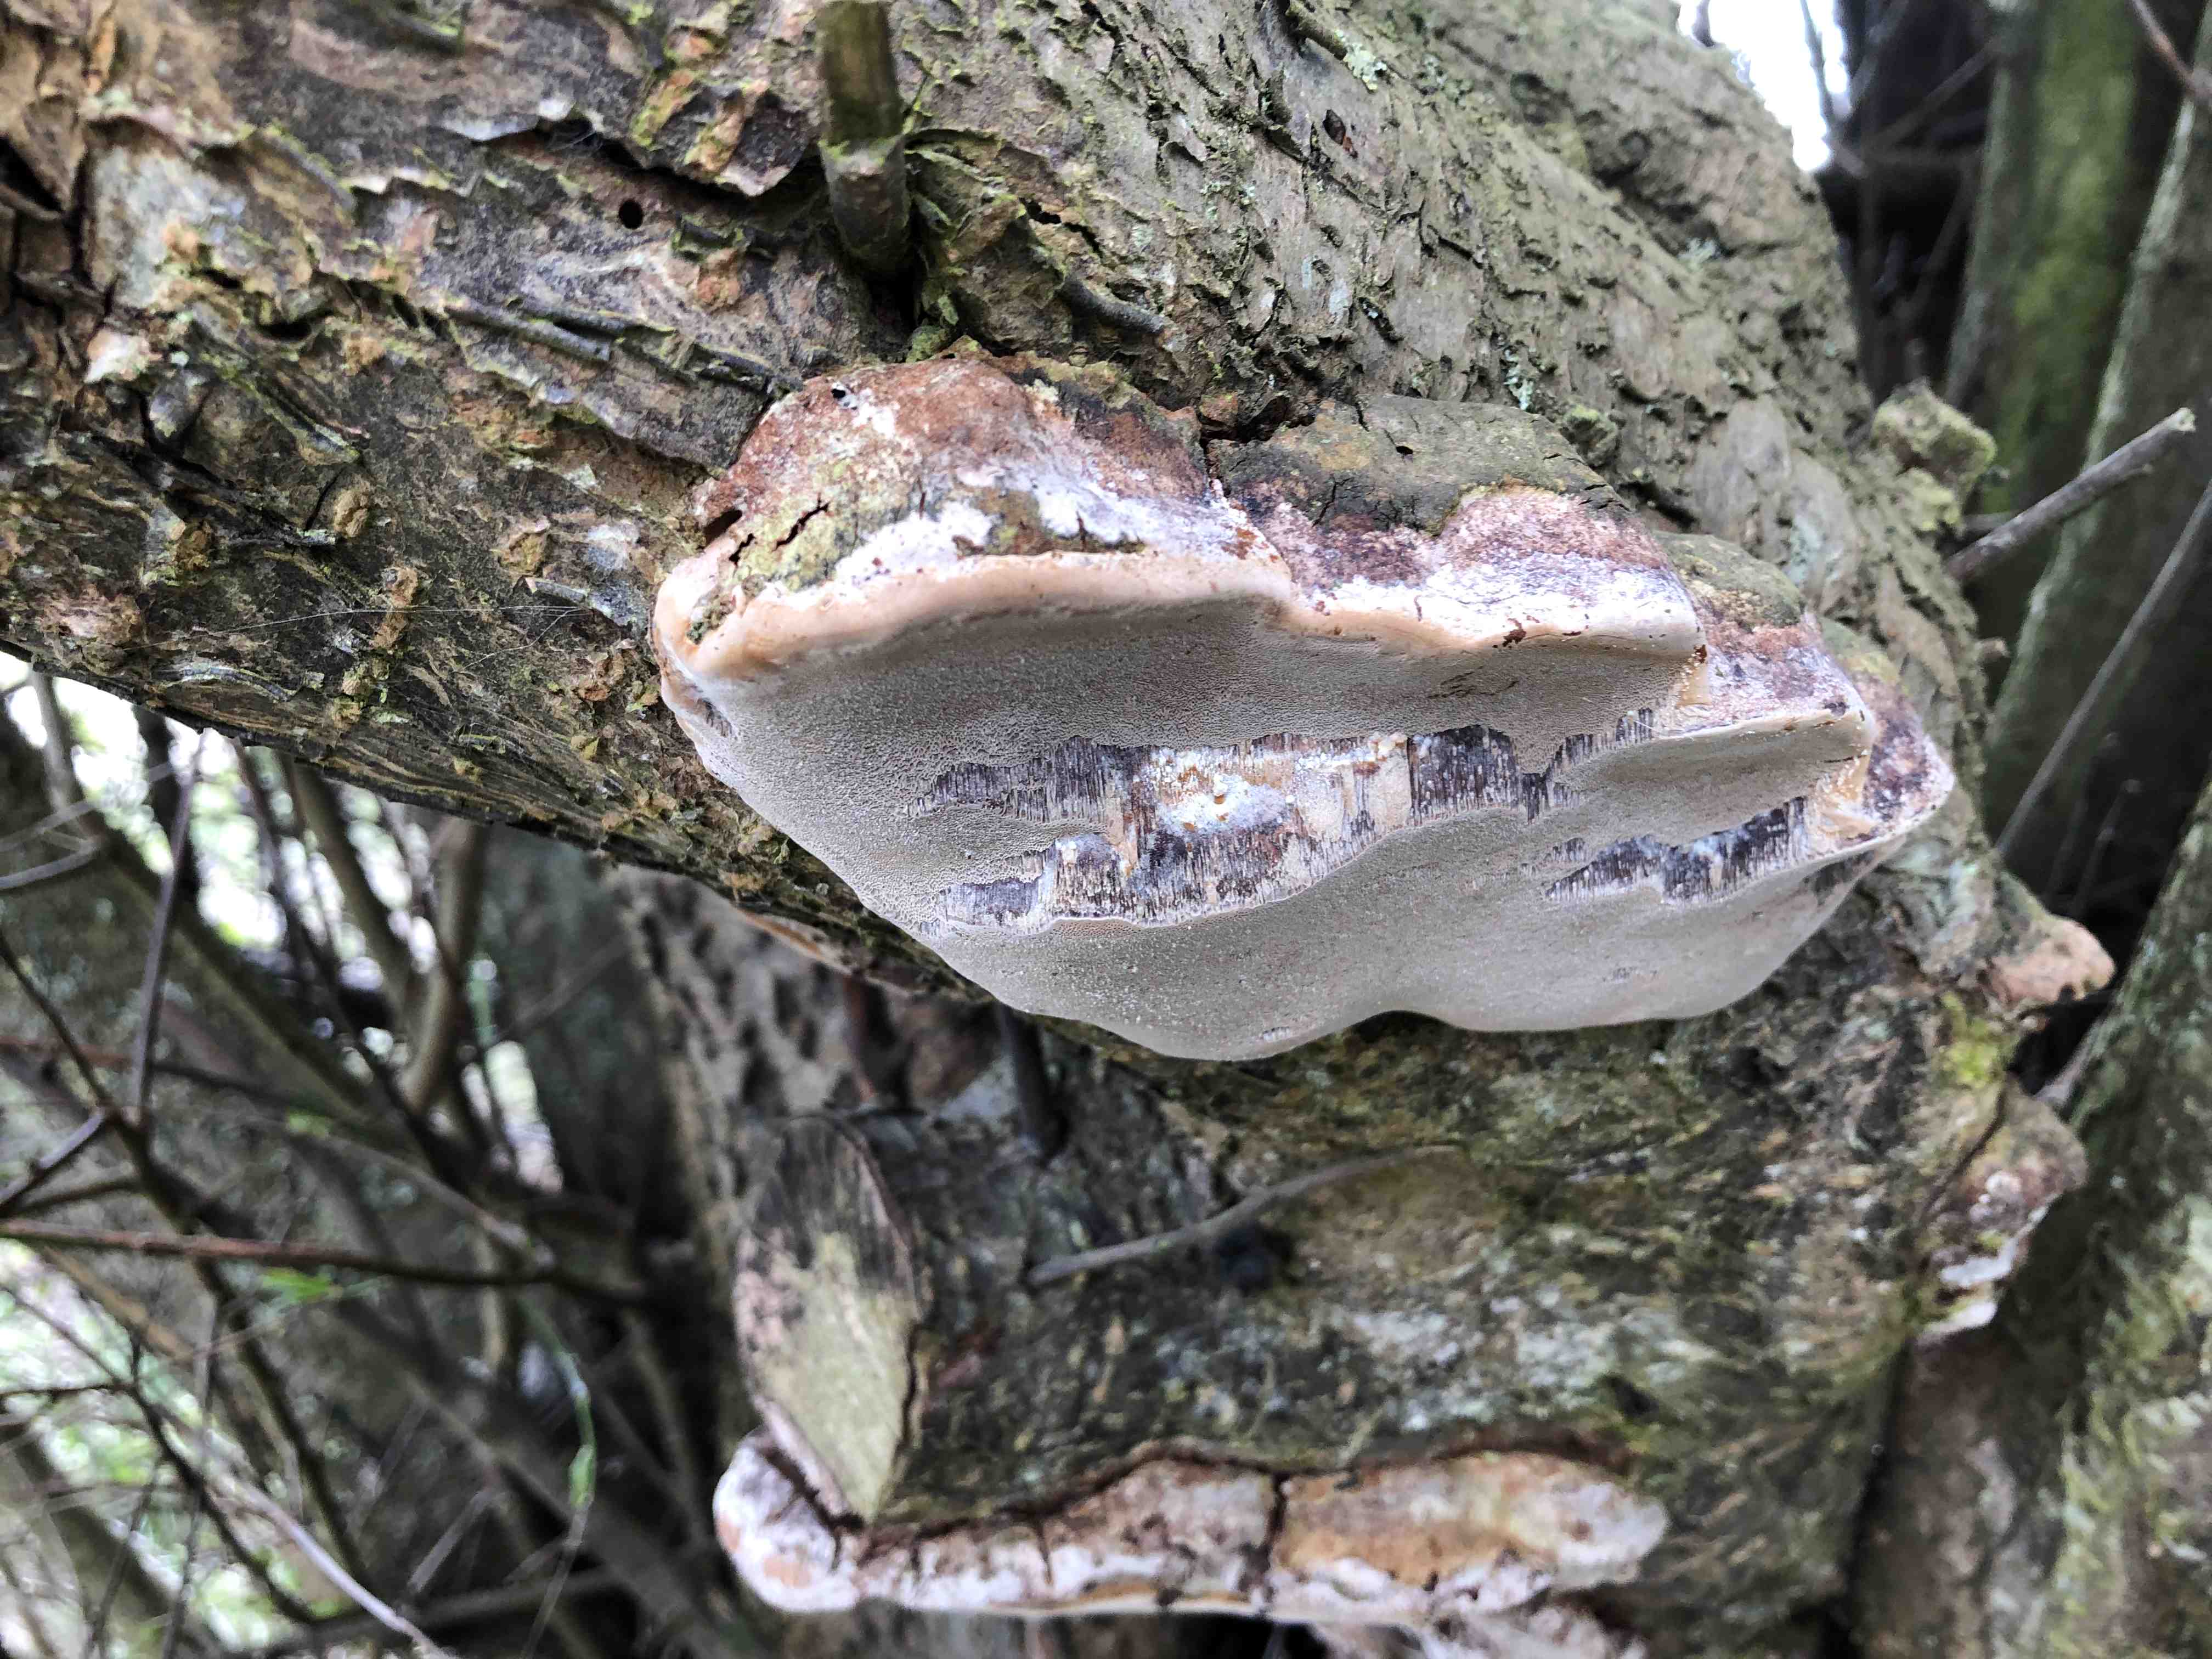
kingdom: Fungi
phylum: Basidiomycota
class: Agaricomycetes
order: Hymenochaetales
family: Hymenochaetaceae
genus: Phellinus
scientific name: Phellinus pomaceus
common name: blomme-ildporesvamp
